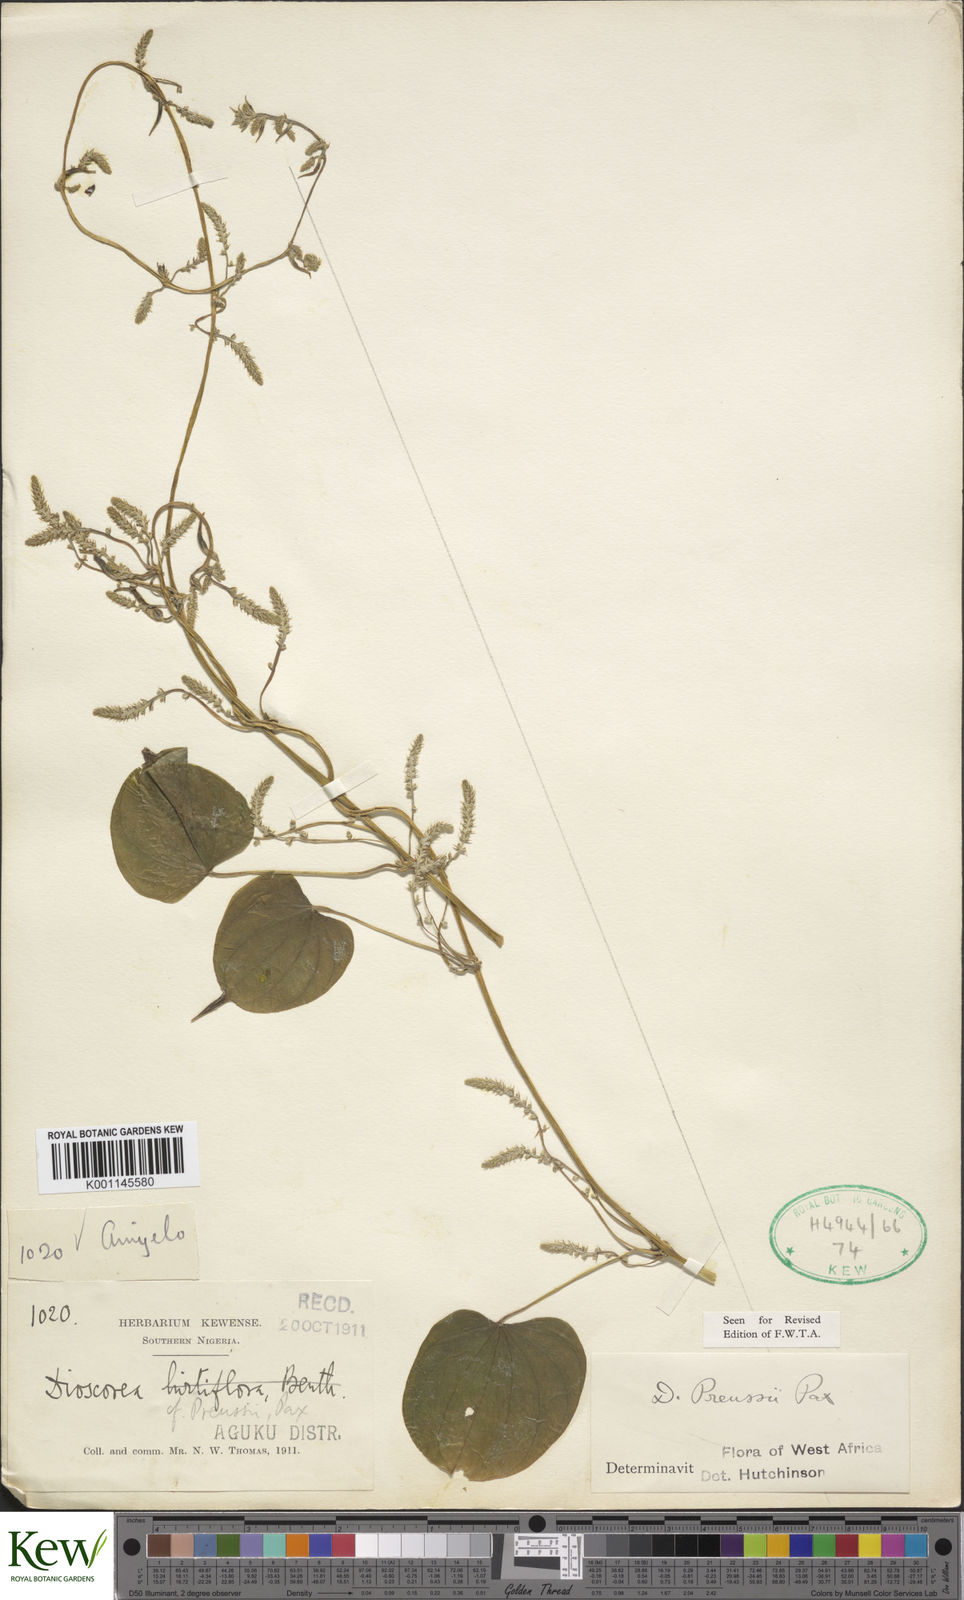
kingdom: Plantae
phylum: Tracheophyta
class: Liliopsida
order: Dioscoreales
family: Dioscoreaceae
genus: Dioscorea
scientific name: Dioscorea preussii
